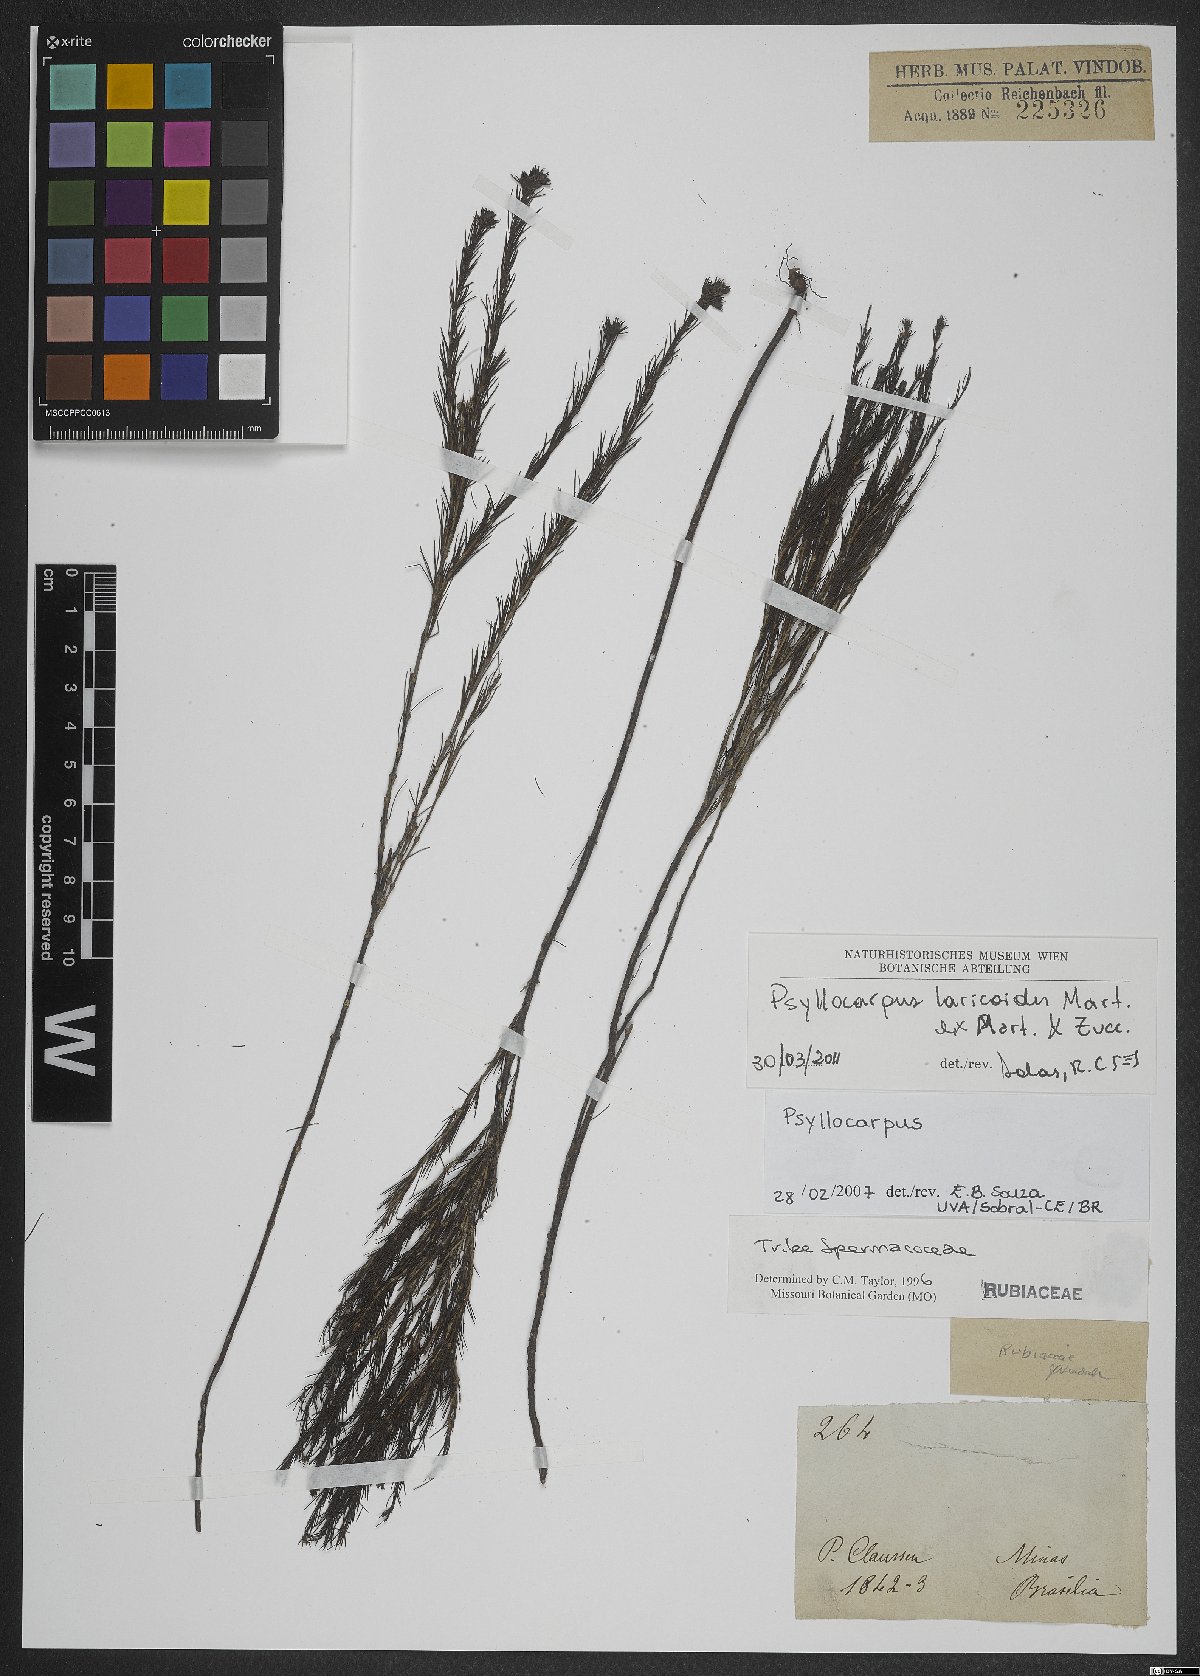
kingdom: Plantae
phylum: Tracheophyta
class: Magnoliopsida
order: Gentianales
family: Rubiaceae
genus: Psyllocarpus
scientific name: Psyllocarpus laricoides
